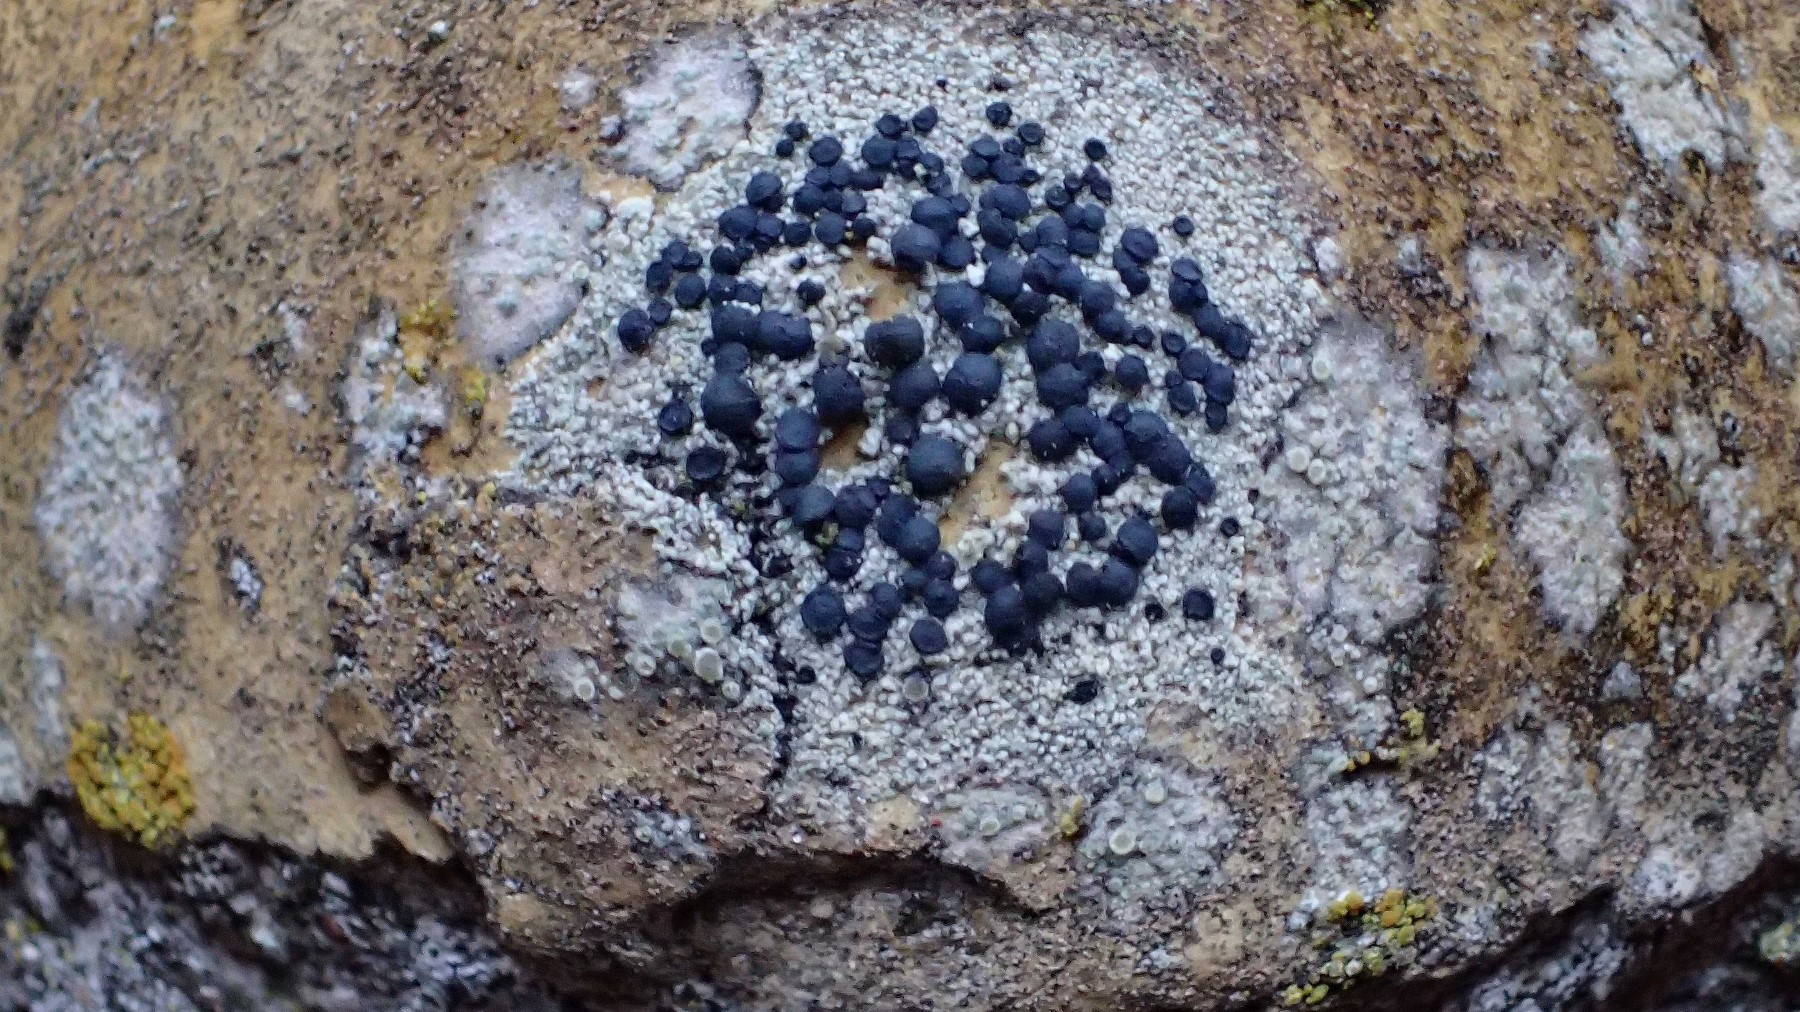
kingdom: Fungi
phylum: Ascomycota
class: Lecanoromycetes
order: Lecanorales
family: Lecanoraceae
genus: Lecidella
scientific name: Lecidella elaeochroma
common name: grågrøn skivelav
